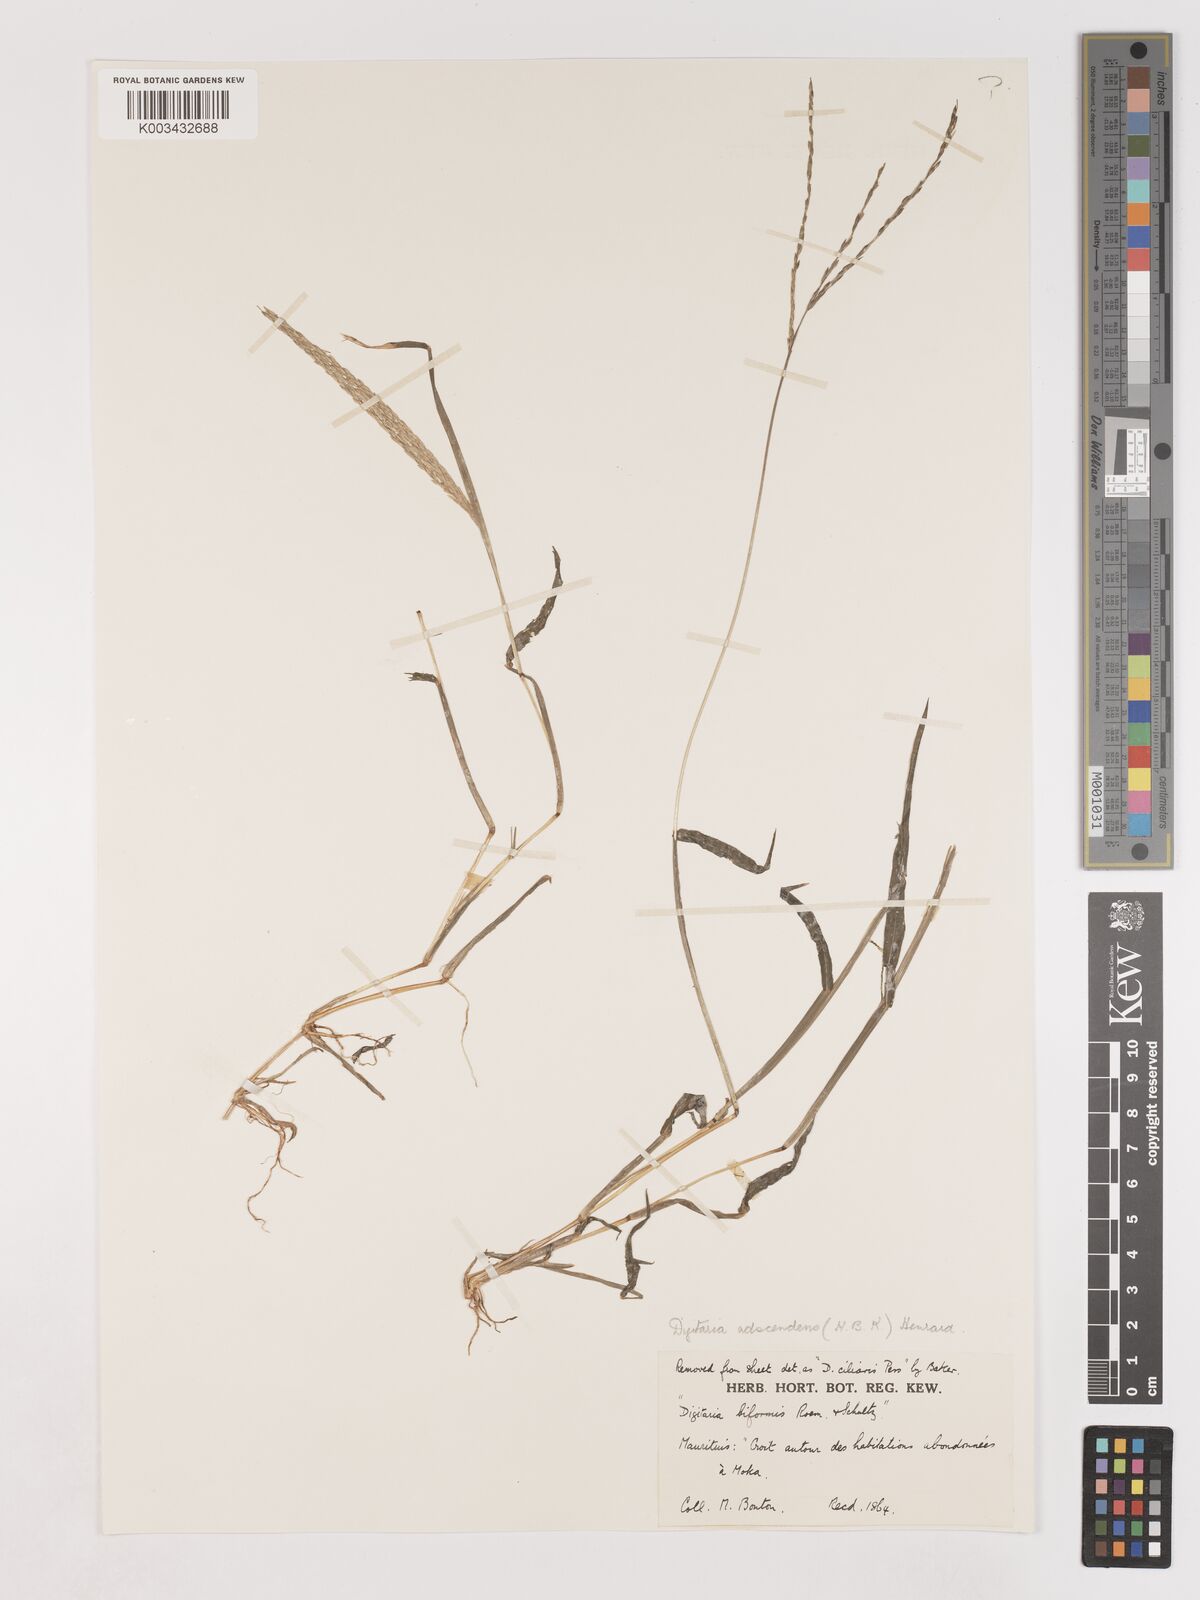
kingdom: Plantae
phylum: Tracheophyta
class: Liliopsida
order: Poales
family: Poaceae
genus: Digitaria
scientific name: Digitaria ciliaris
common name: Tropical finger-grass
